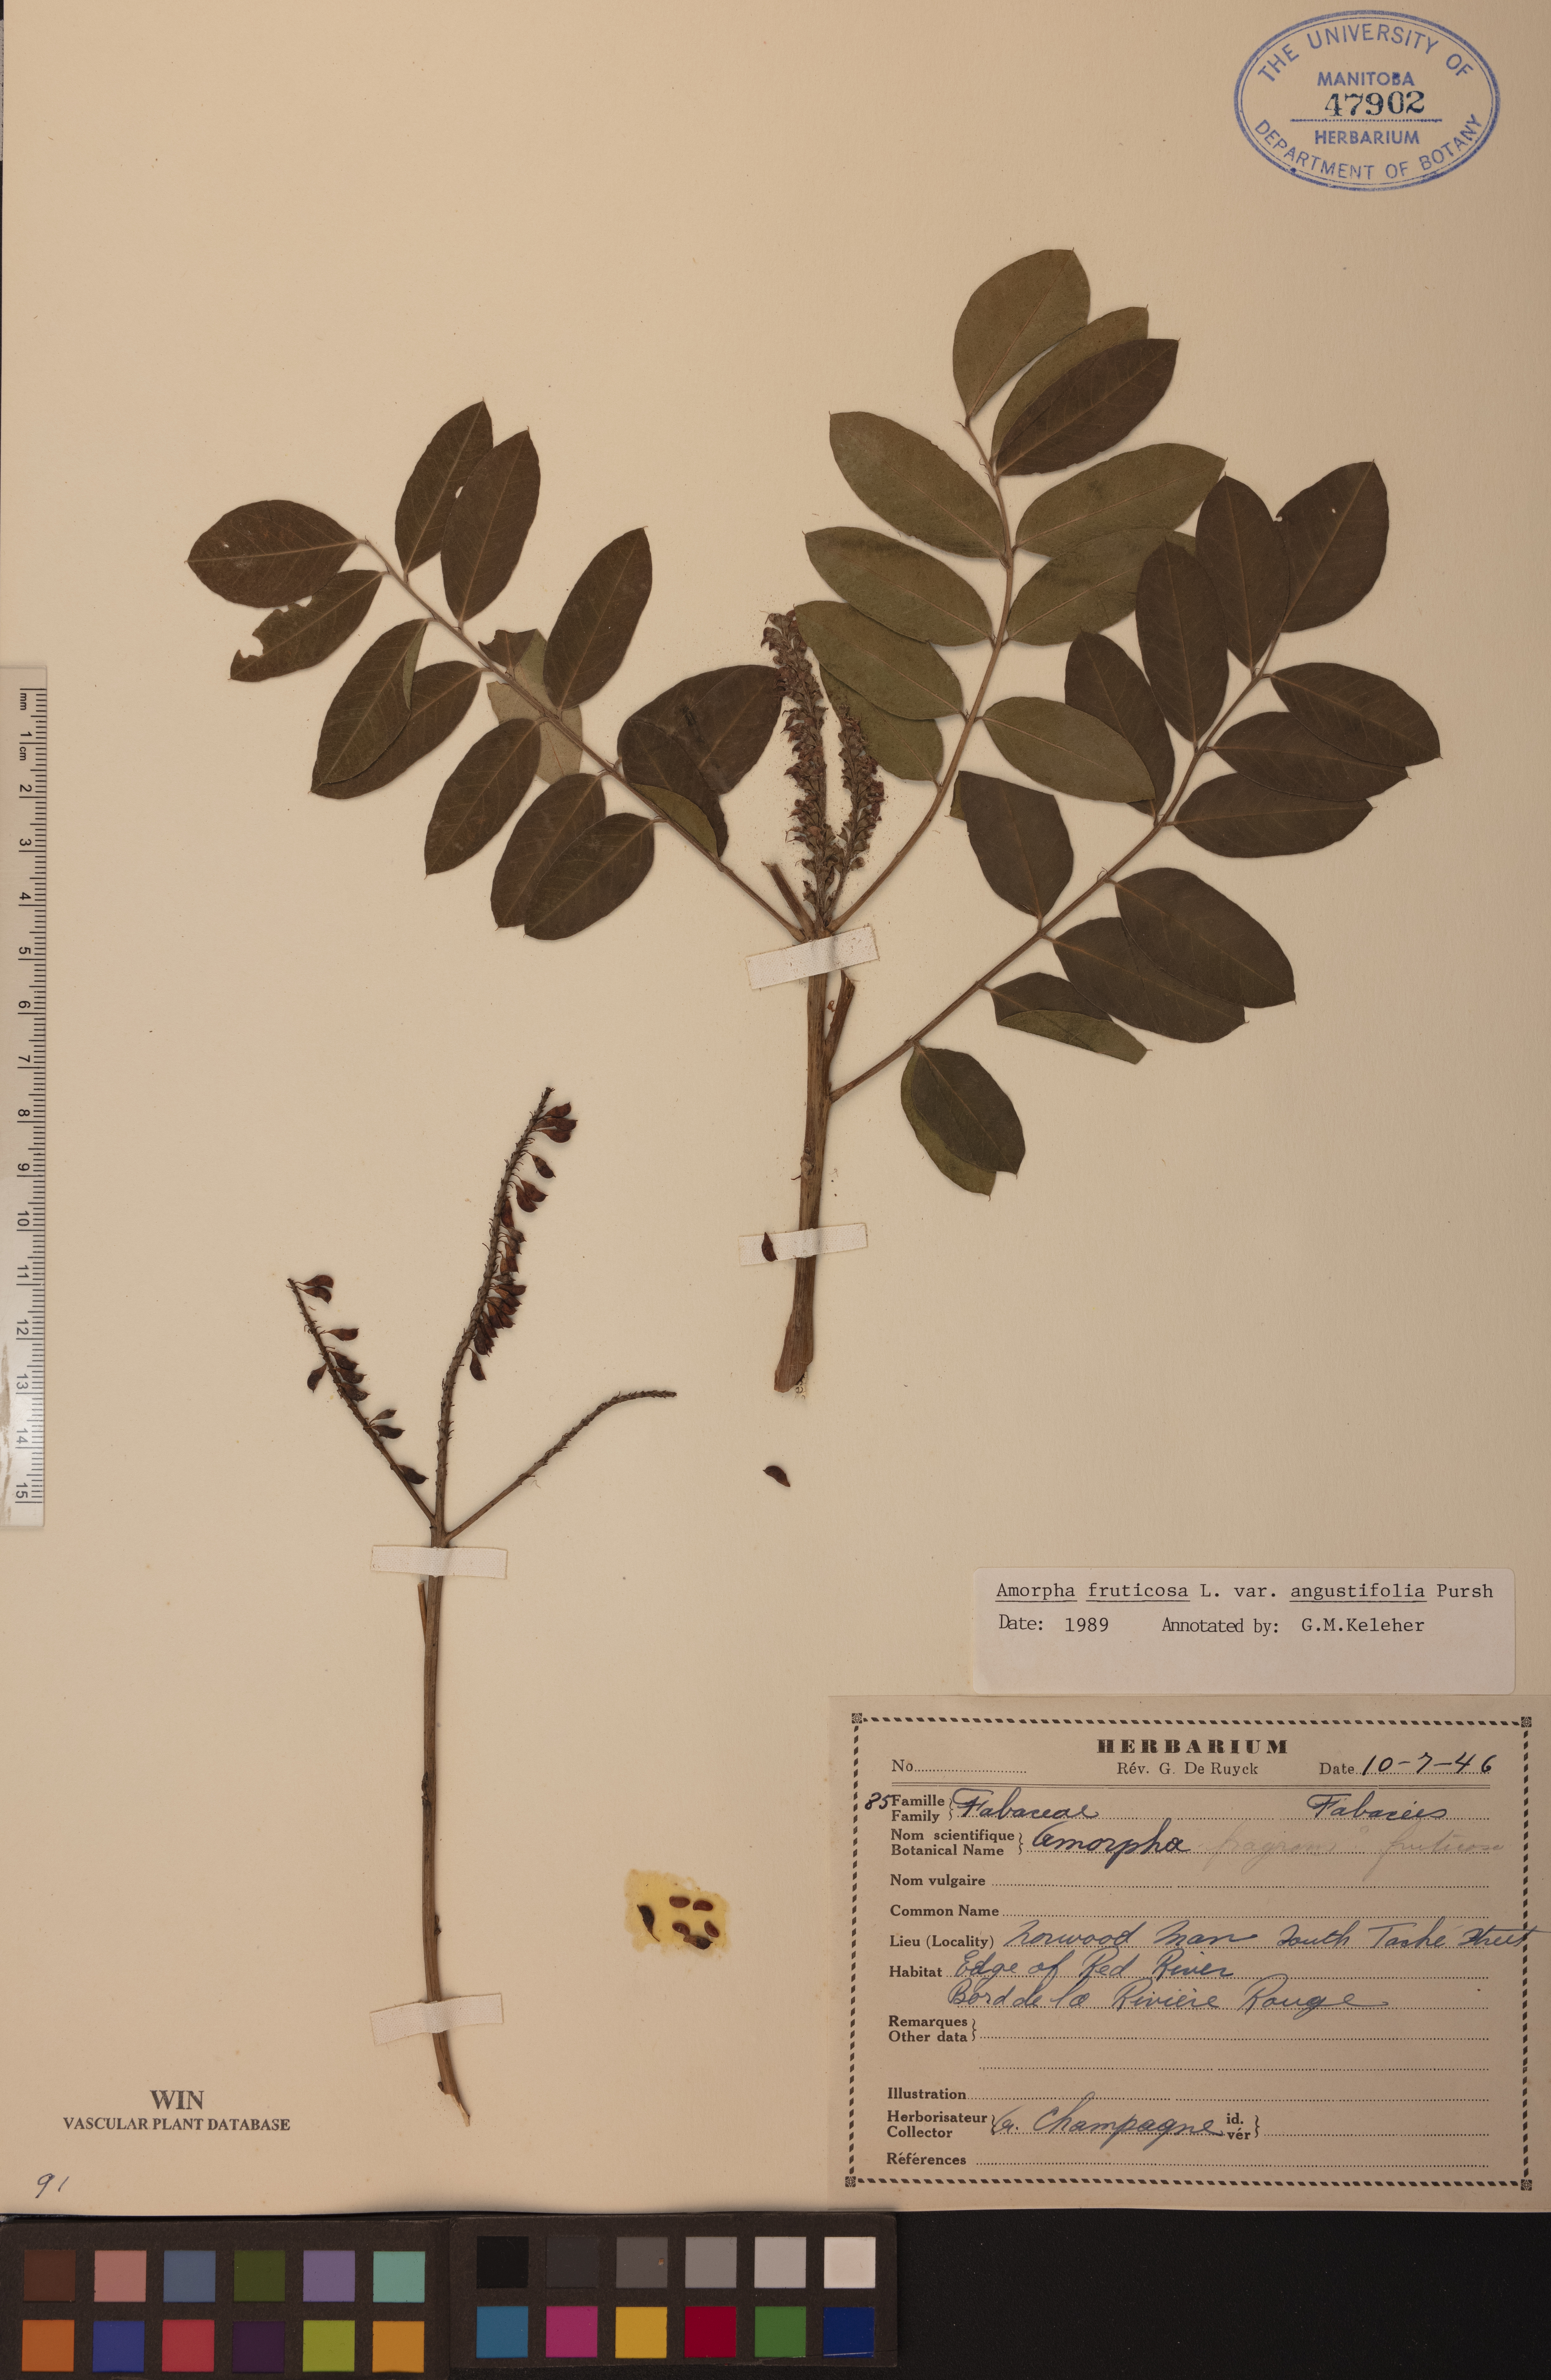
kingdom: Plantae
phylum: Tracheophyta
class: Magnoliopsida
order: Fabales
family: Fabaceae
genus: Amorpha
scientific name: Amorpha fruticosa
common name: False indigo
